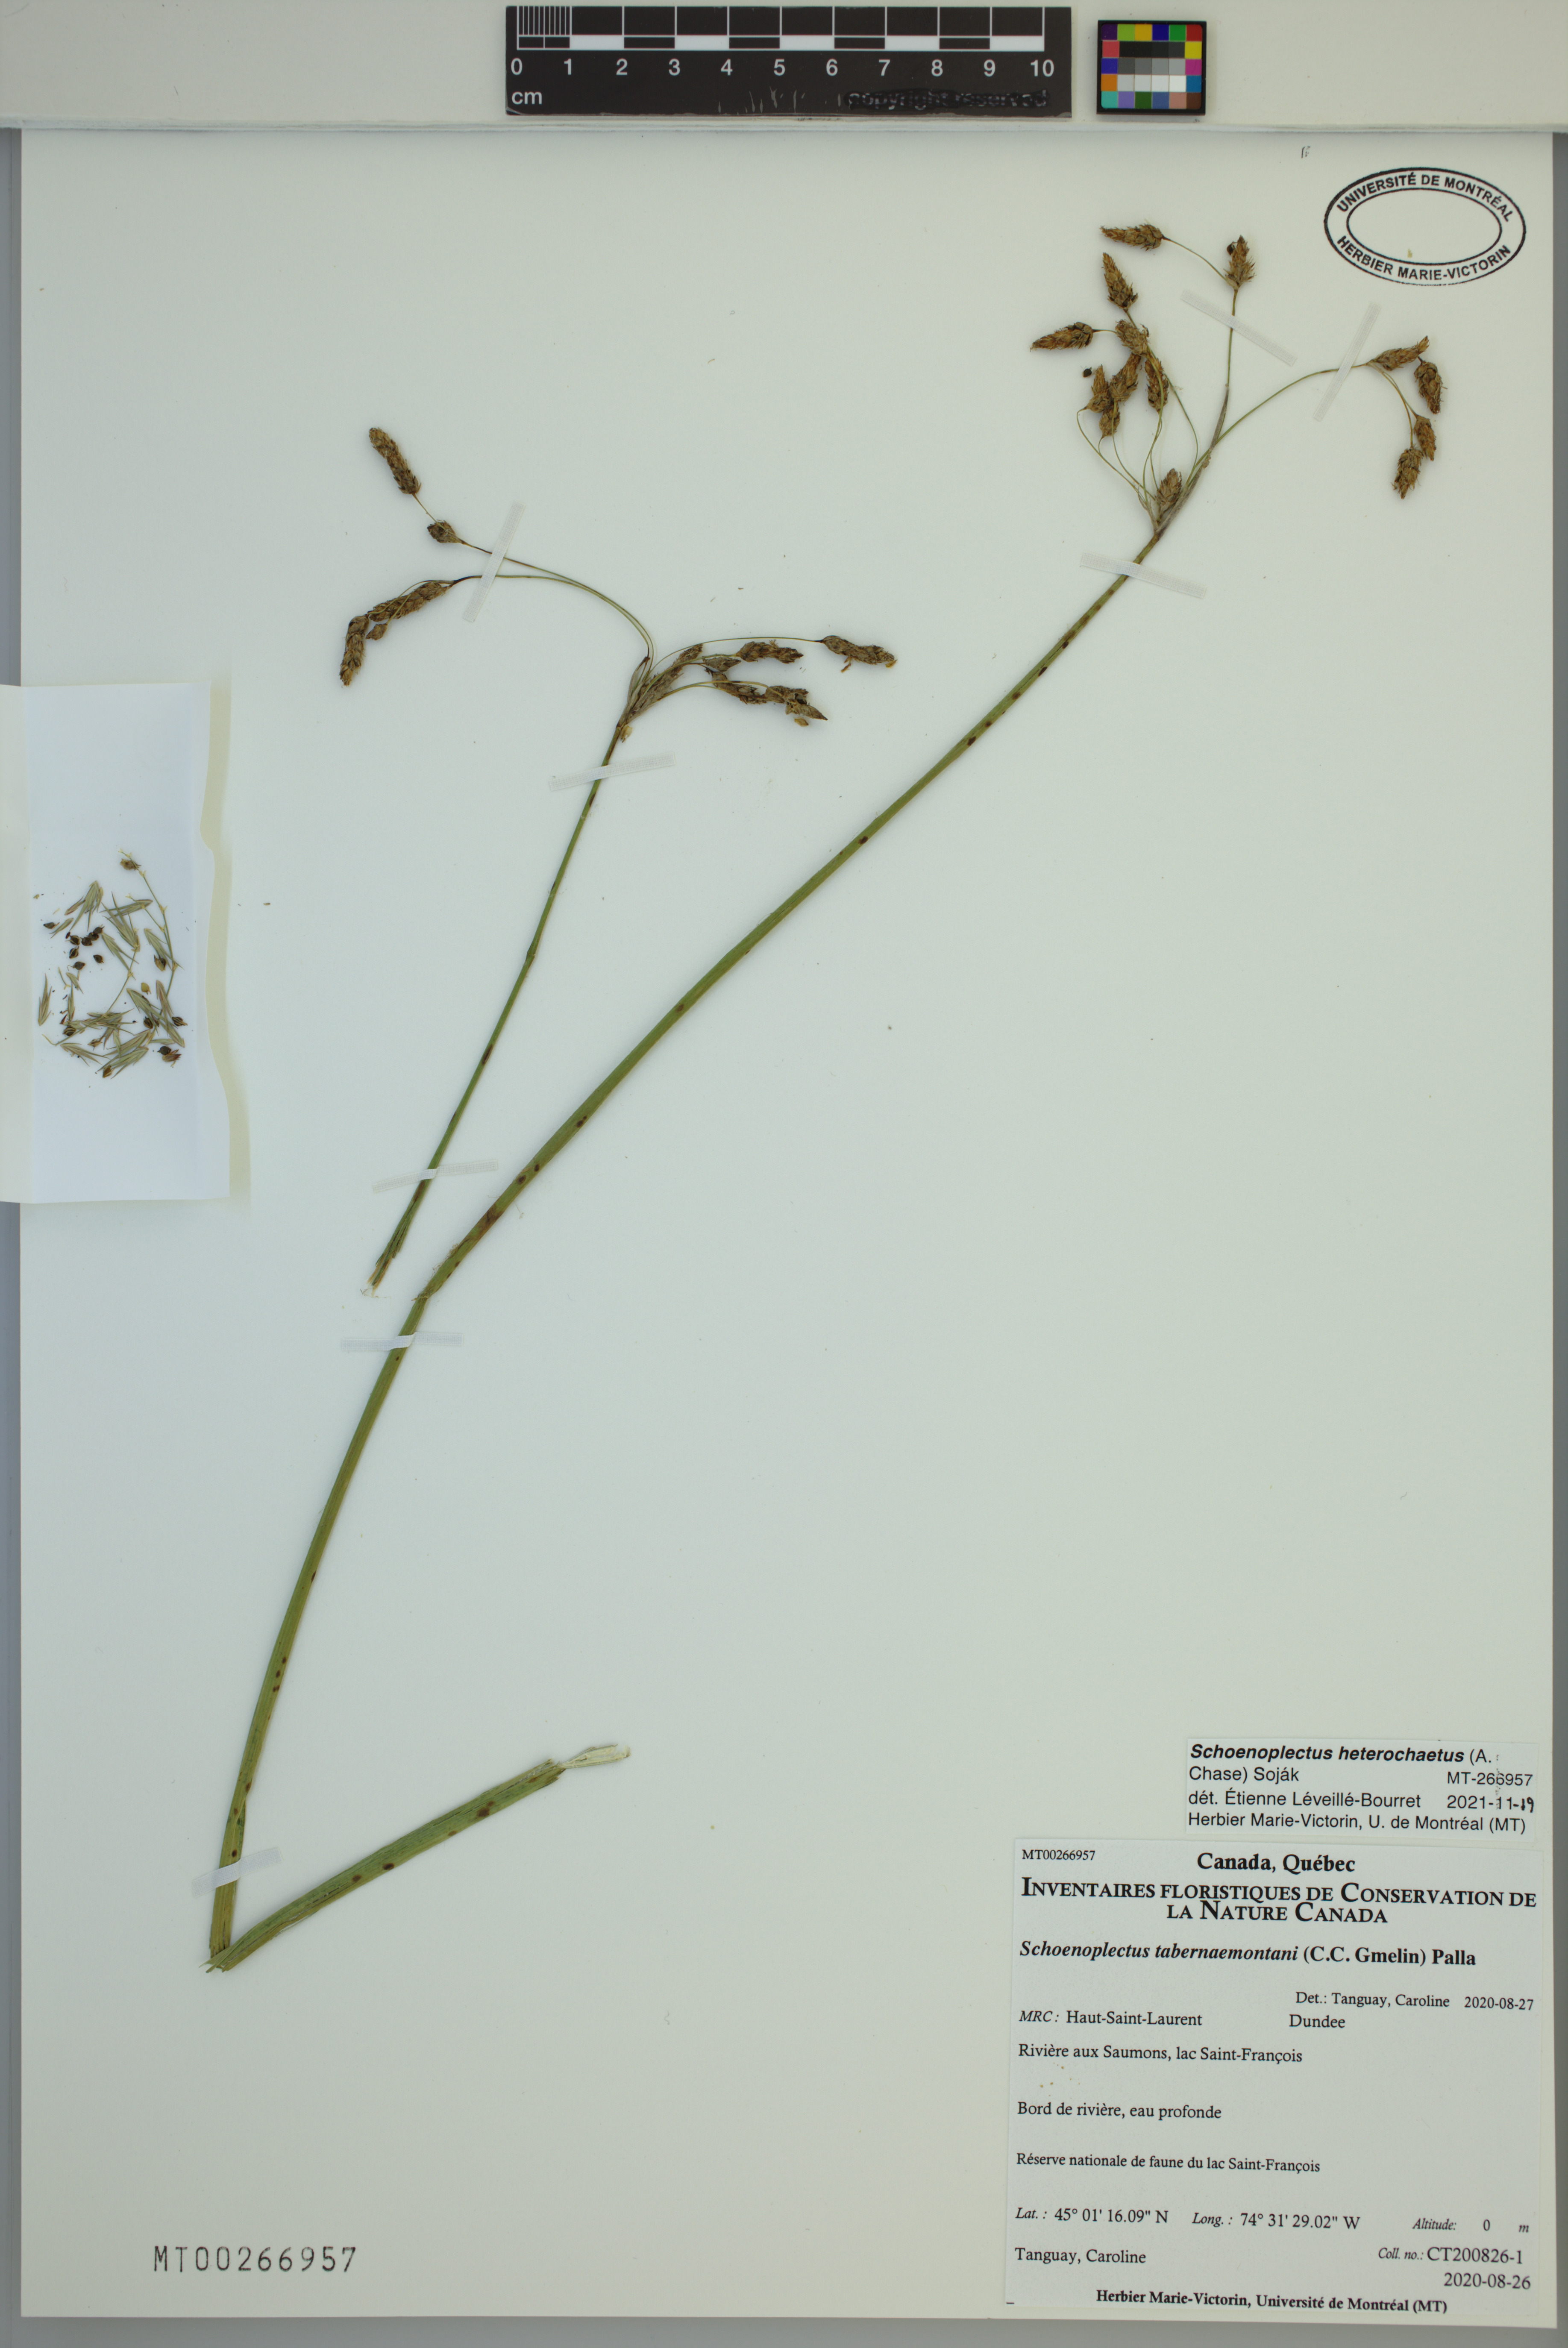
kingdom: Plantae
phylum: Tracheophyta
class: Liliopsida
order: Poales
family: Cyperaceae
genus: Schoenoplectus
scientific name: Schoenoplectus heterochaetus
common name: Pale great bulrush
